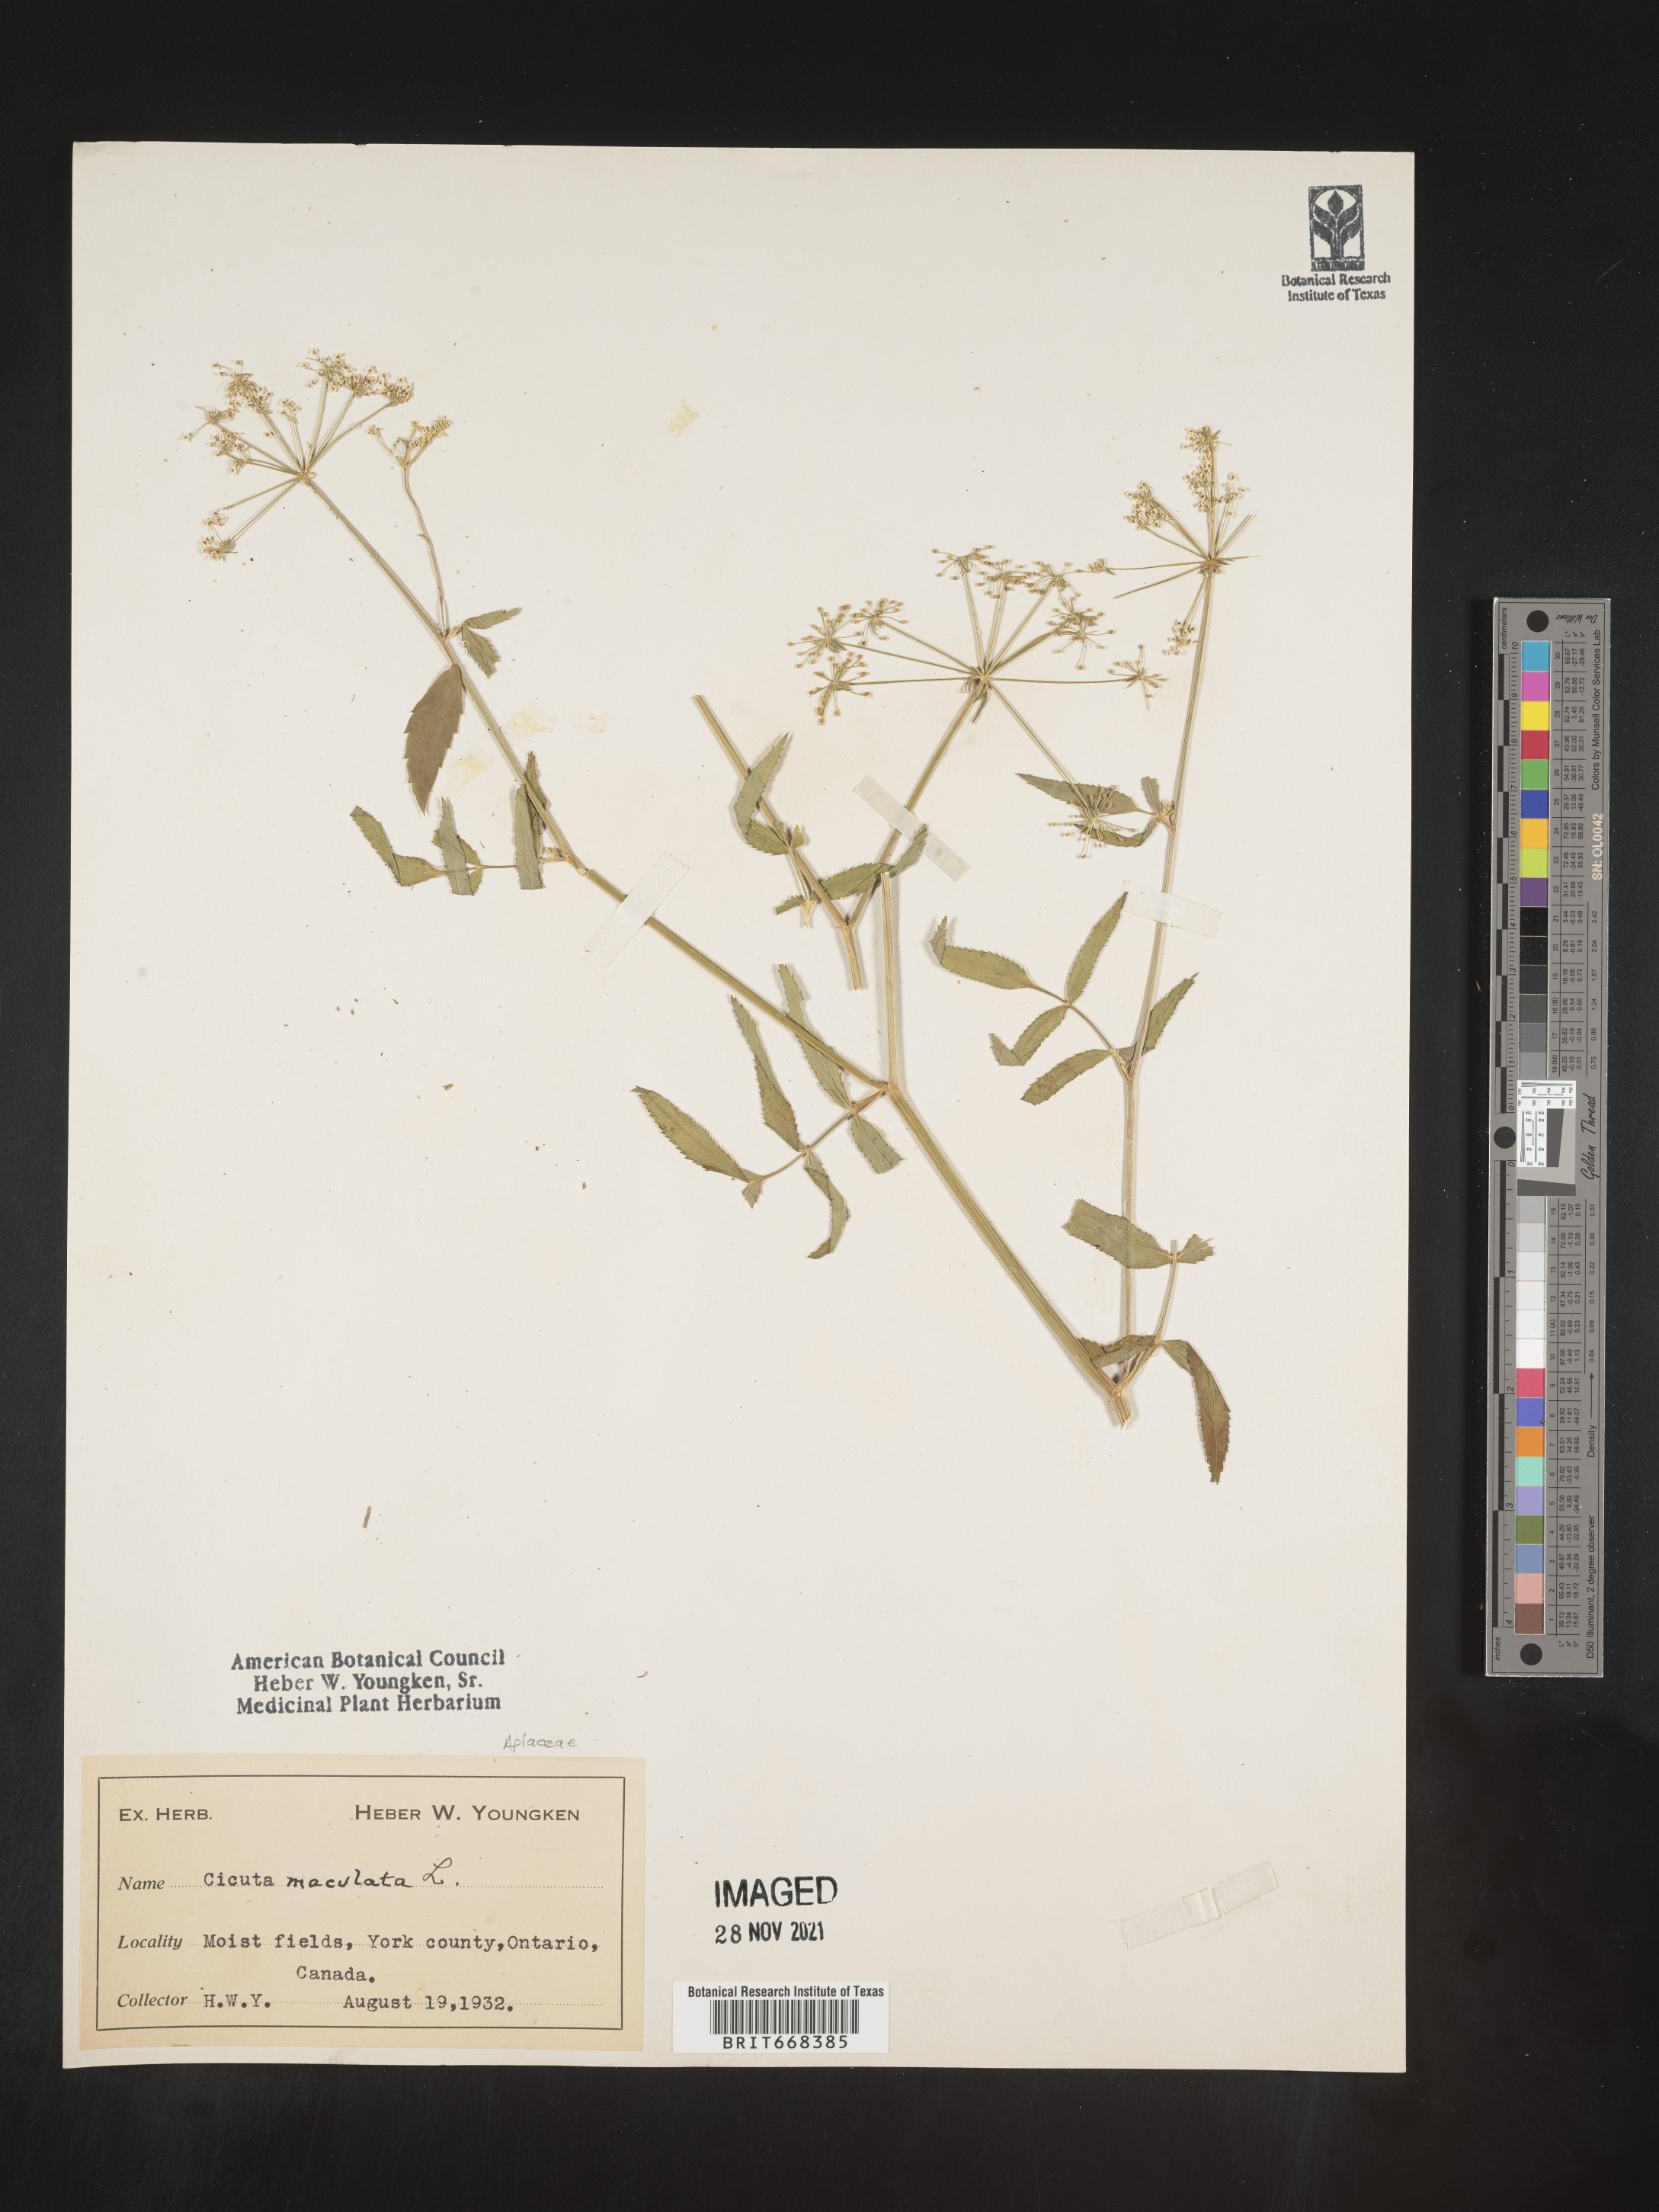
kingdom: Plantae
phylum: Tracheophyta
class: Magnoliopsida
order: Apiales
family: Apiaceae
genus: Cicuta
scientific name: Cicuta maculata
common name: Spotted cowbane
